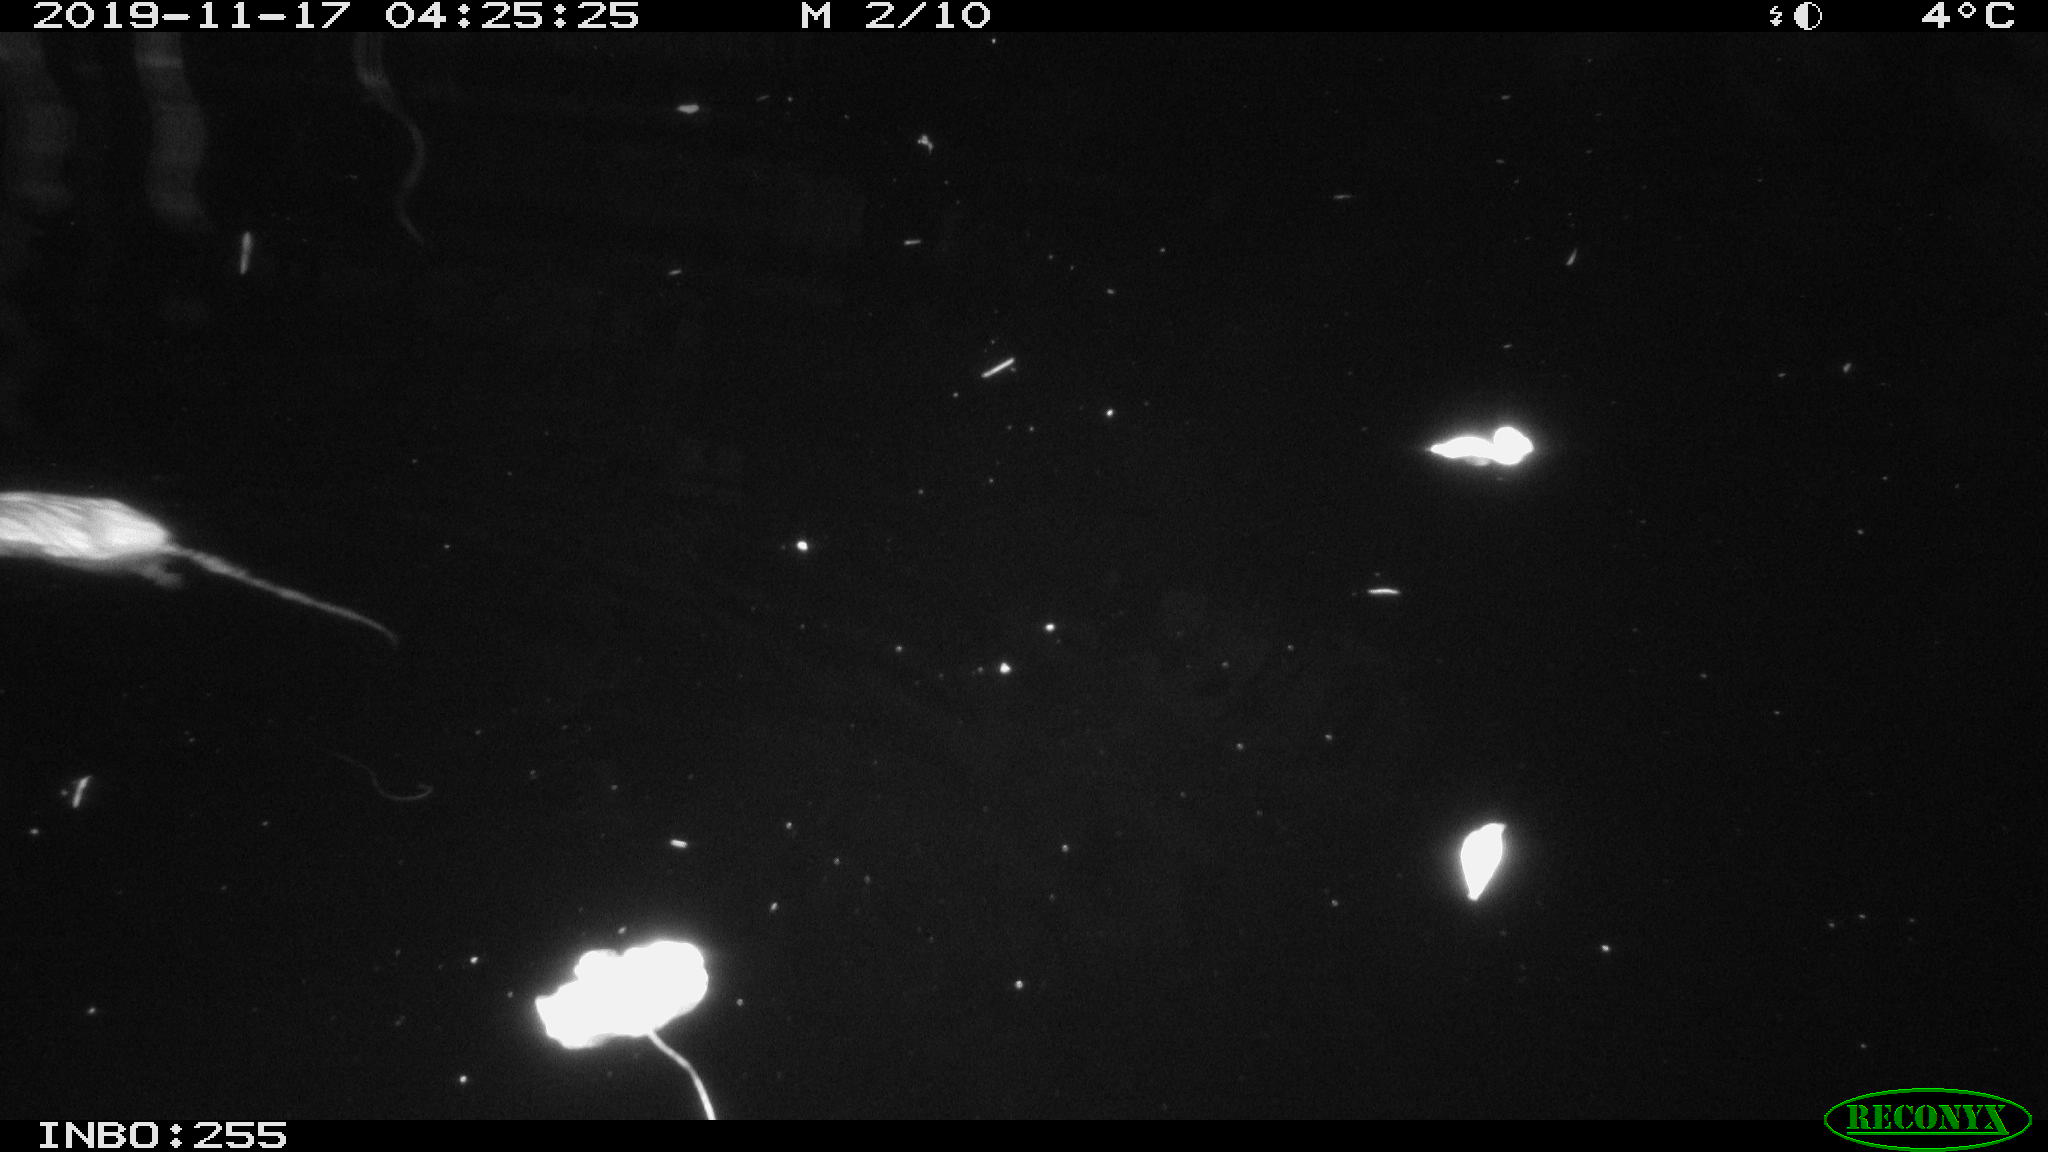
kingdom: Animalia
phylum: Chordata
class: Mammalia
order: Rodentia
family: Muridae
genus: Rattus
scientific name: Rattus norvegicus
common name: Brown rat
